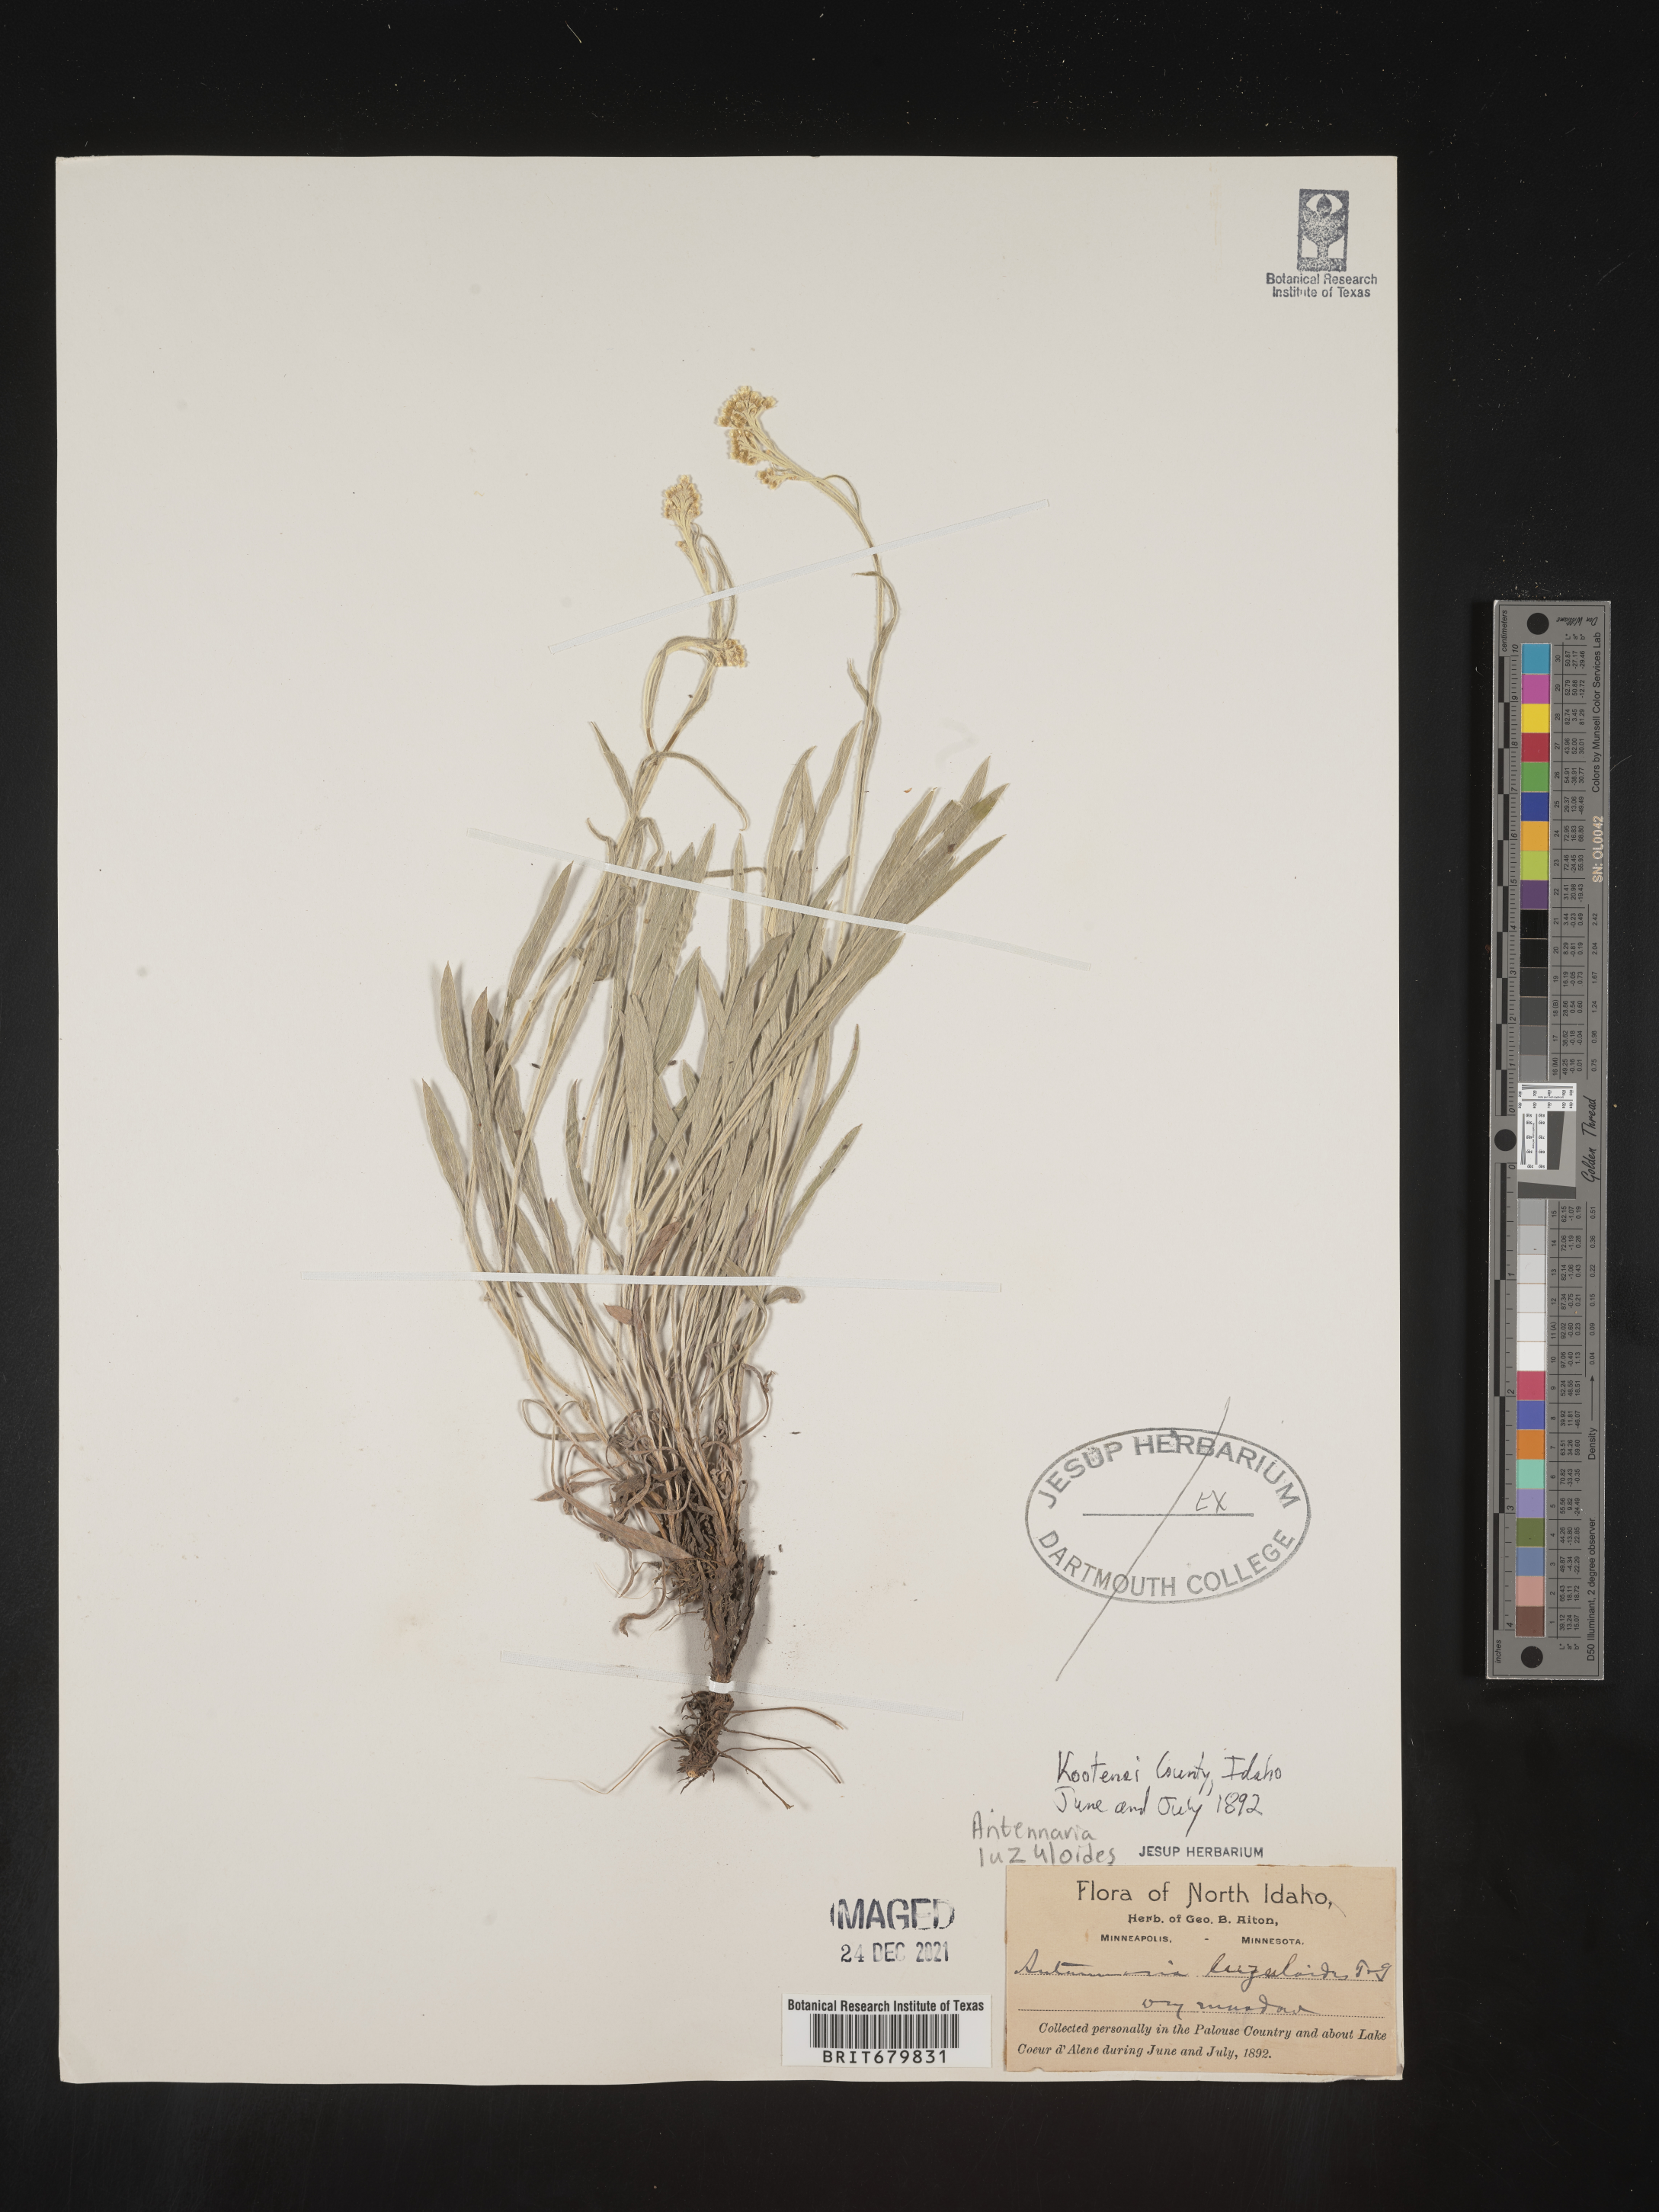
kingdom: Plantae
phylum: Tracheophyta
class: Magnoliopsida
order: Asterales
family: Asteraceae
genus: Antennaria
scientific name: Antennaria luzuloides
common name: Rush pussytoes
